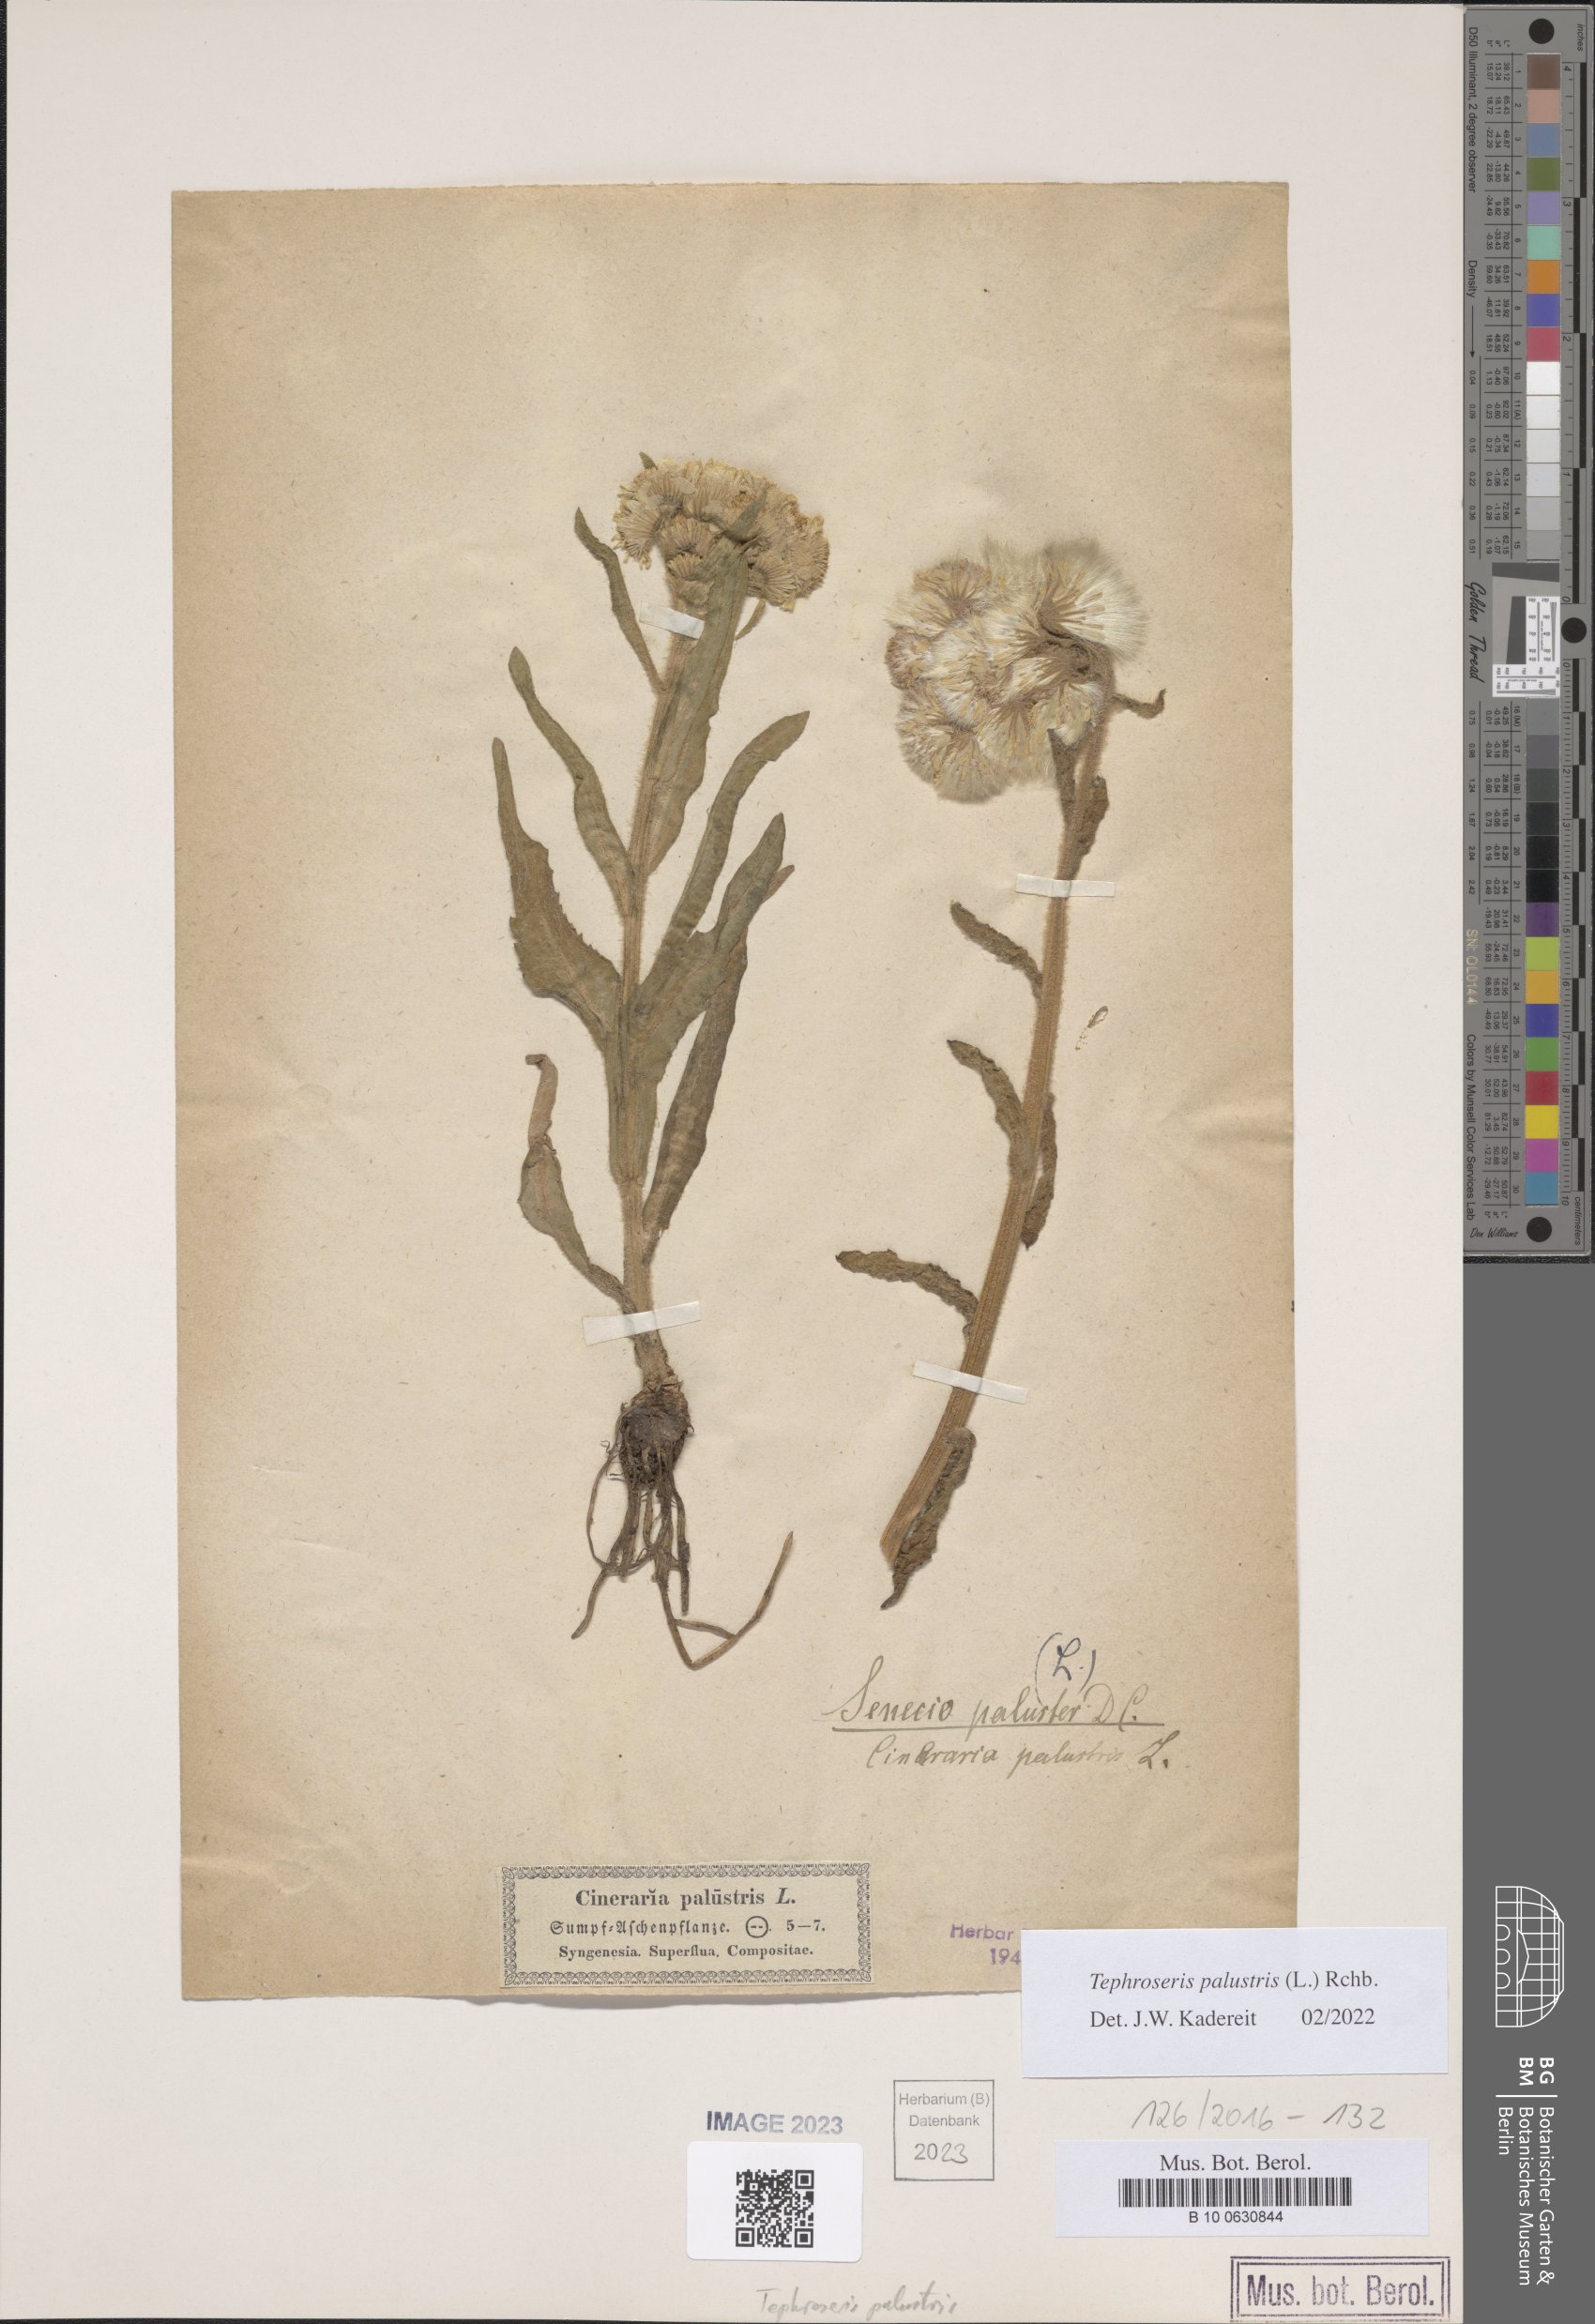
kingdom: Plantae
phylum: Tracheophyta
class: Magnoliopsida
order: Asterales
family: Asteraceae
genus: Tephroseris
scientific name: Tephroseris palustris
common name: Marsh fleawort
